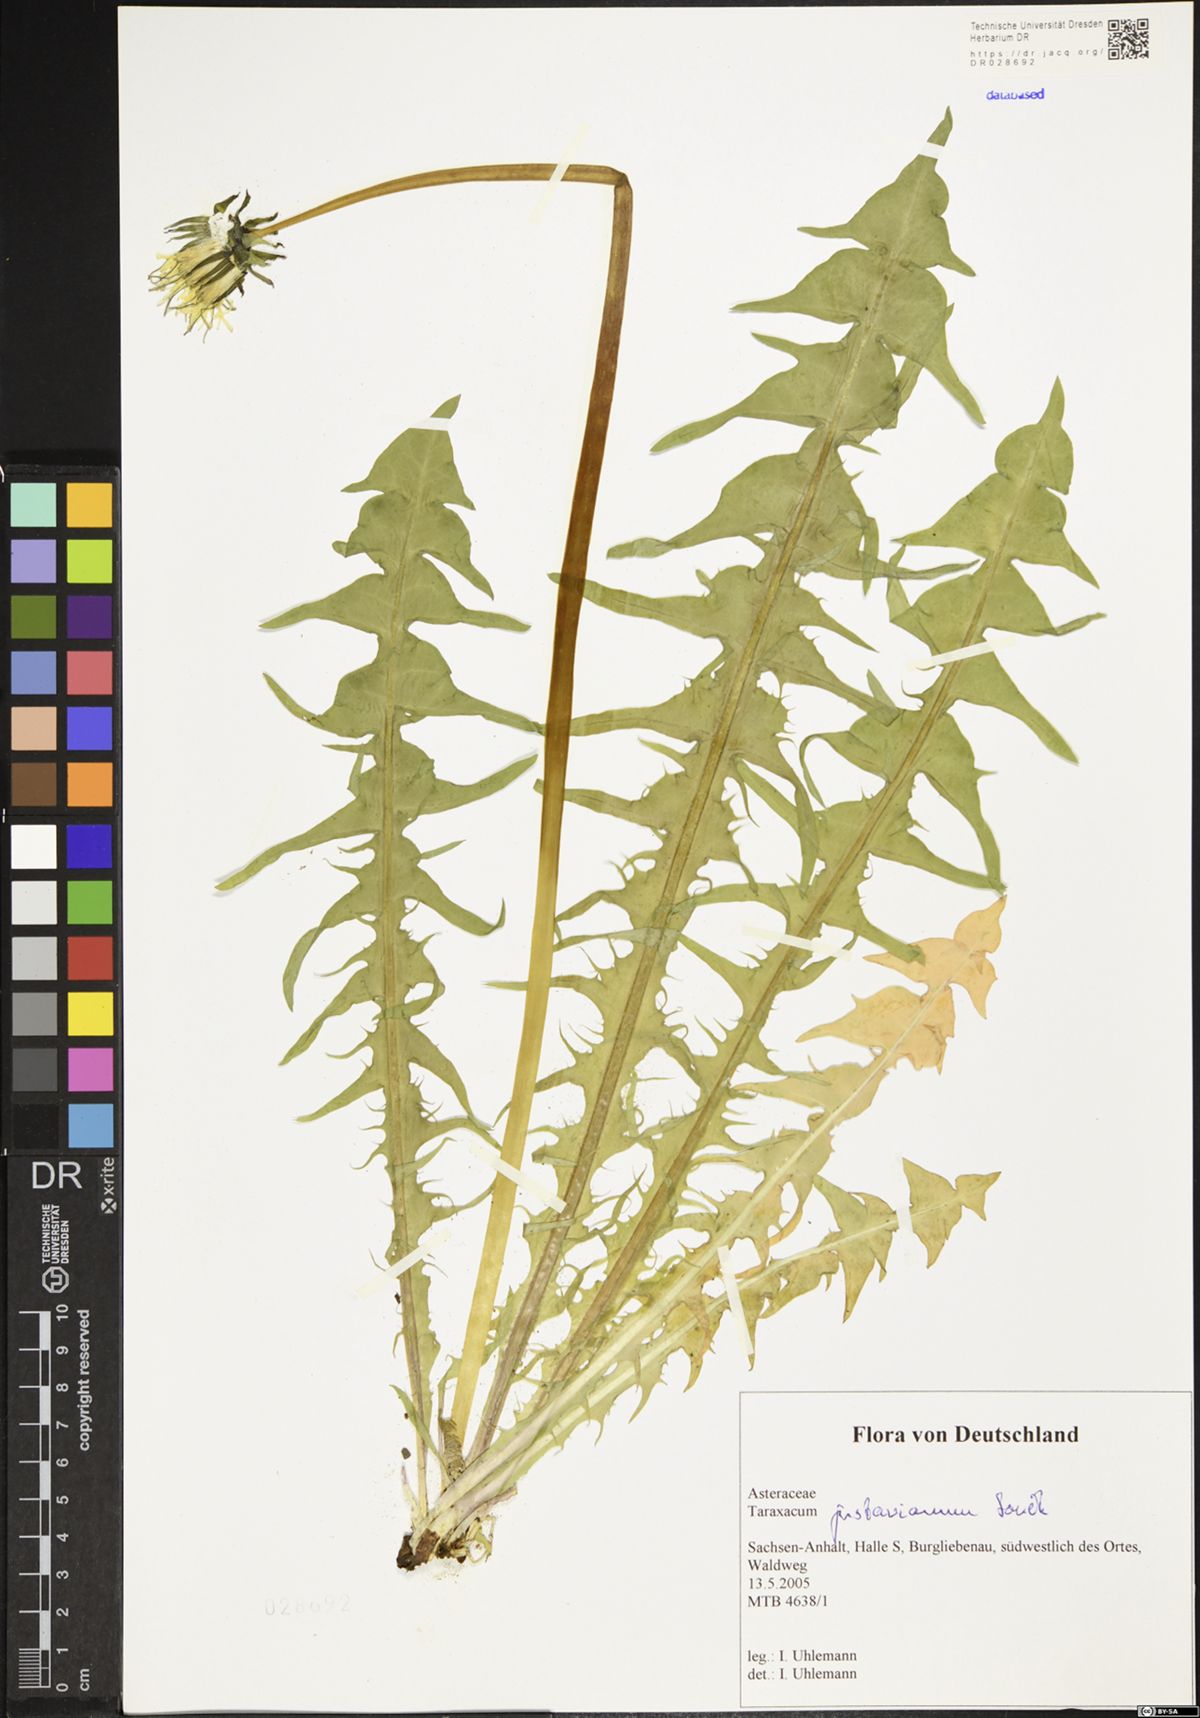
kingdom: Plantae
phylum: Tracheophyta
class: Magnoliopsida
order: Asterales
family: Asteraceae
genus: Taraxacum
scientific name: Taraxacum gustavianum
